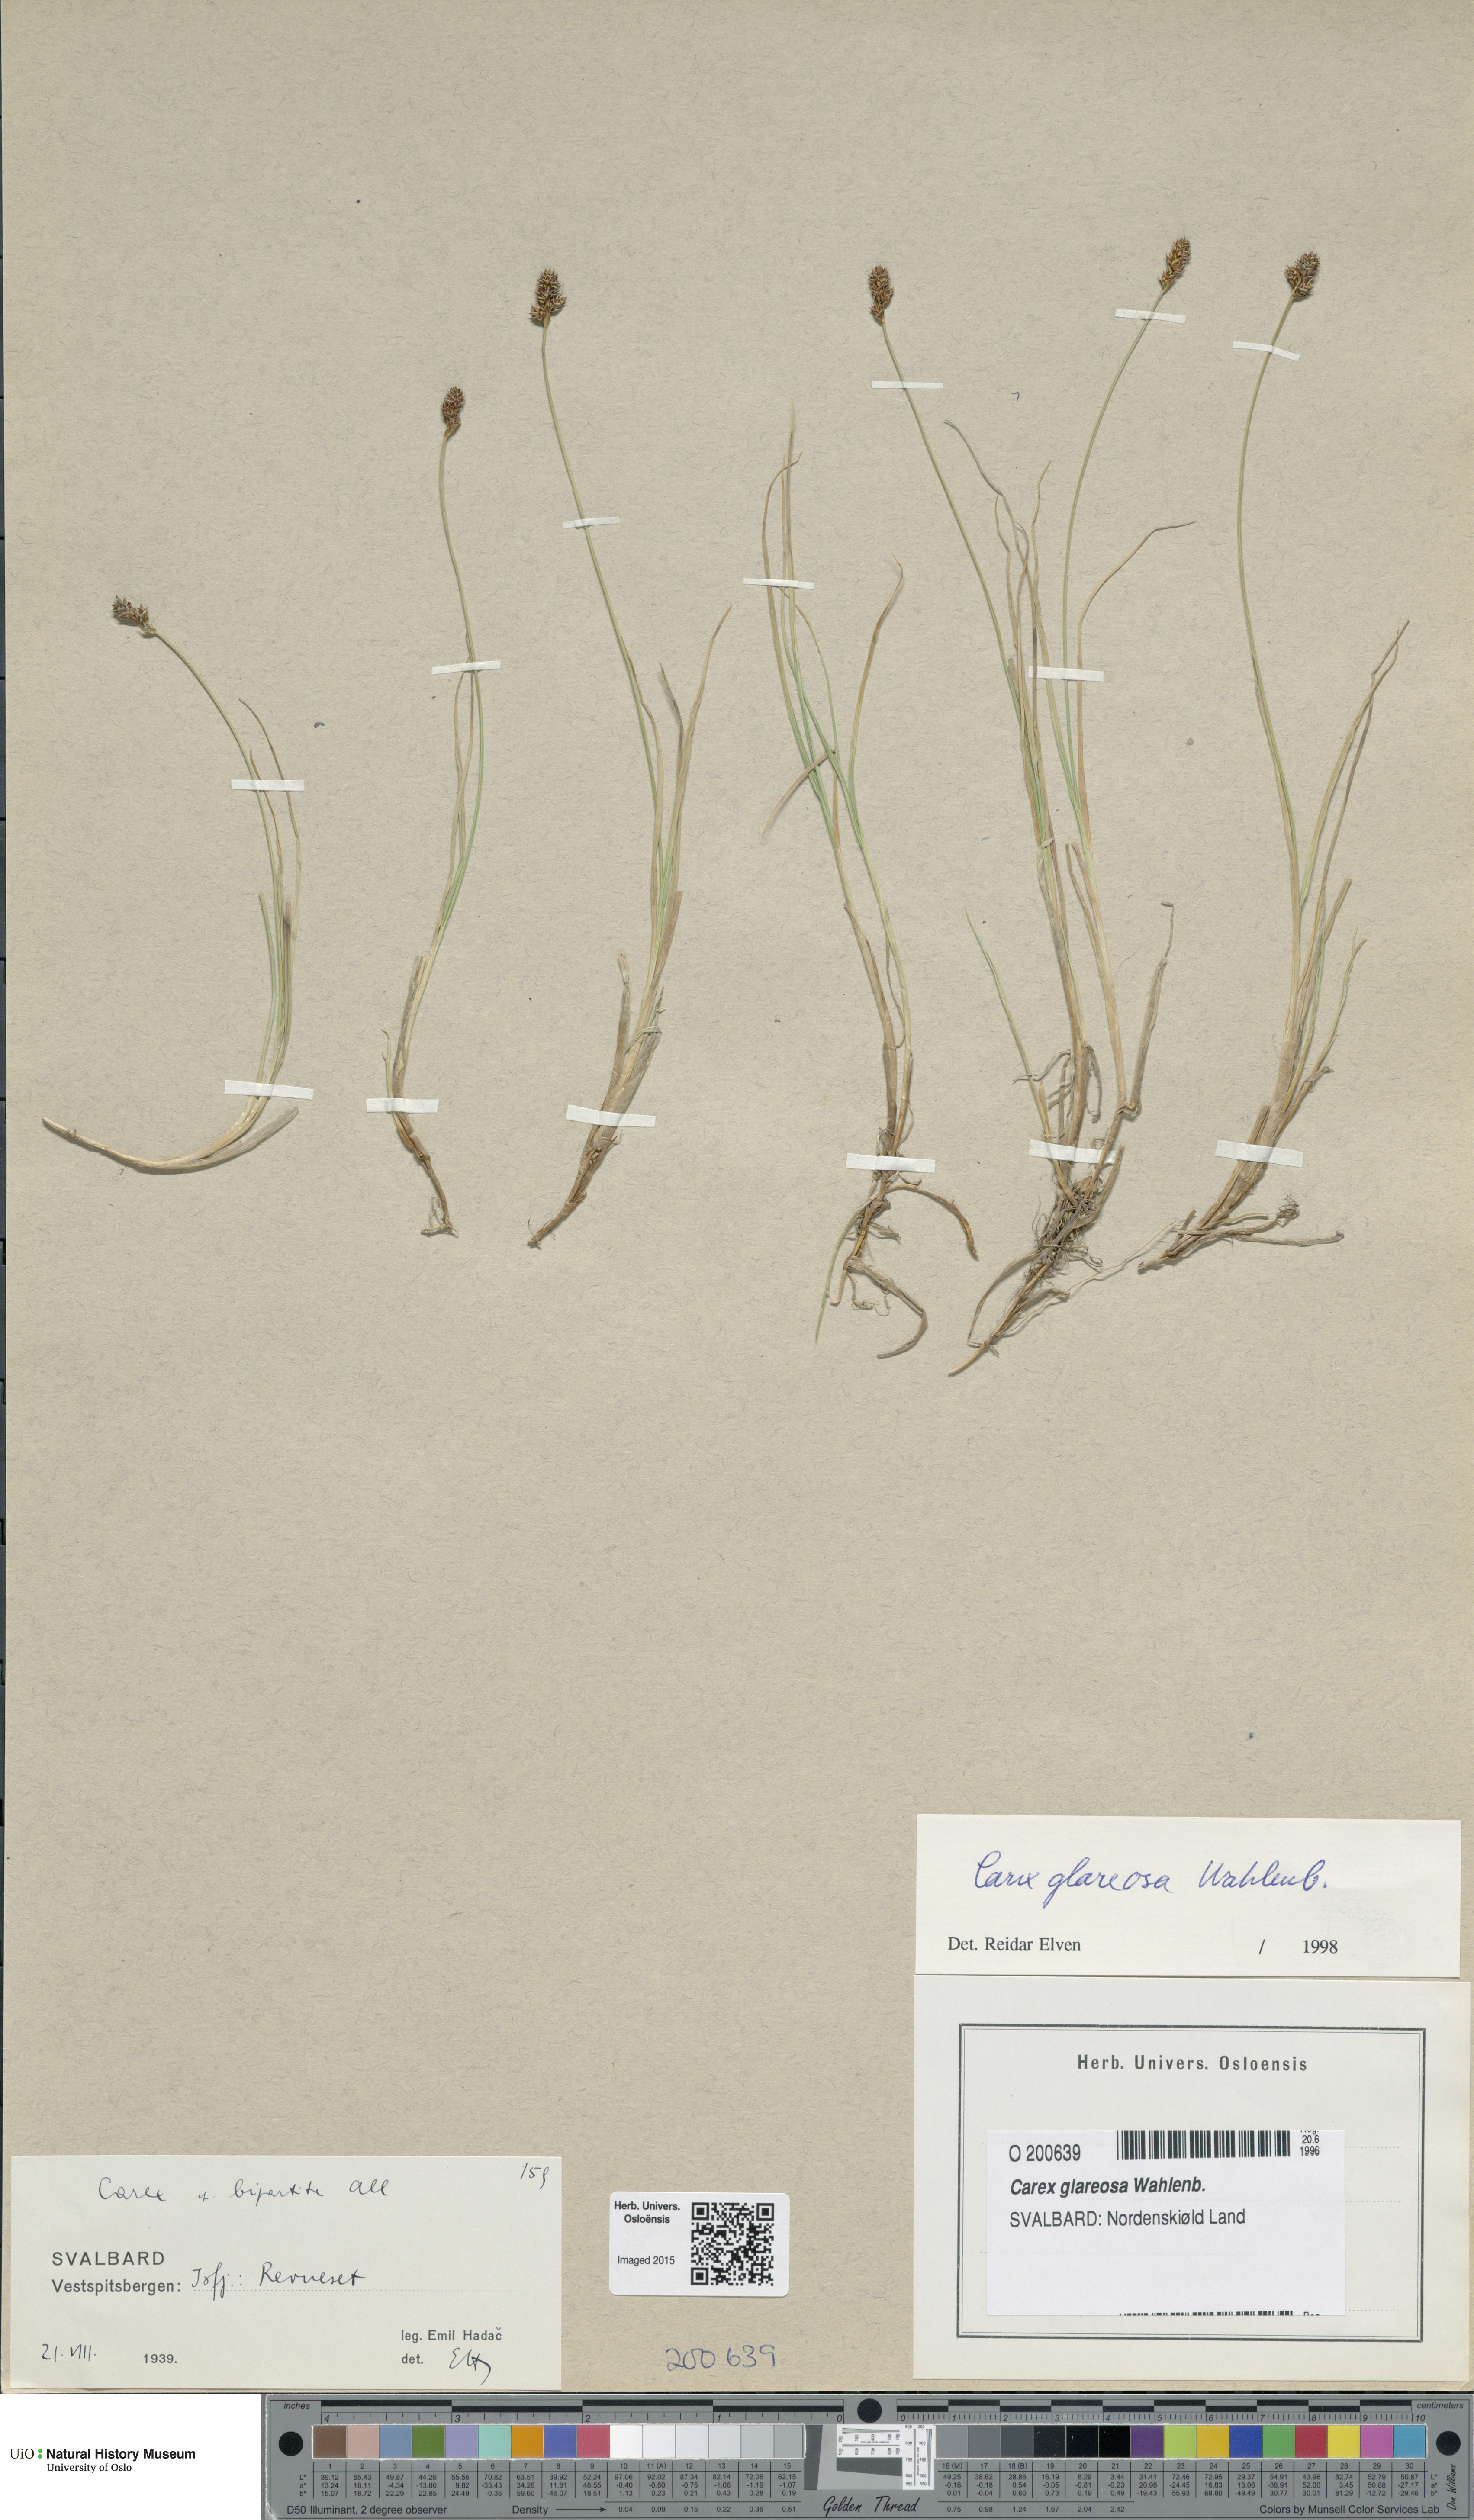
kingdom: Plantae
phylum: Tracheophyta
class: Liliopsida
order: Poales
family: Cyperaceae
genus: Carex
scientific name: Carex glareosa
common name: Clustered sedge
